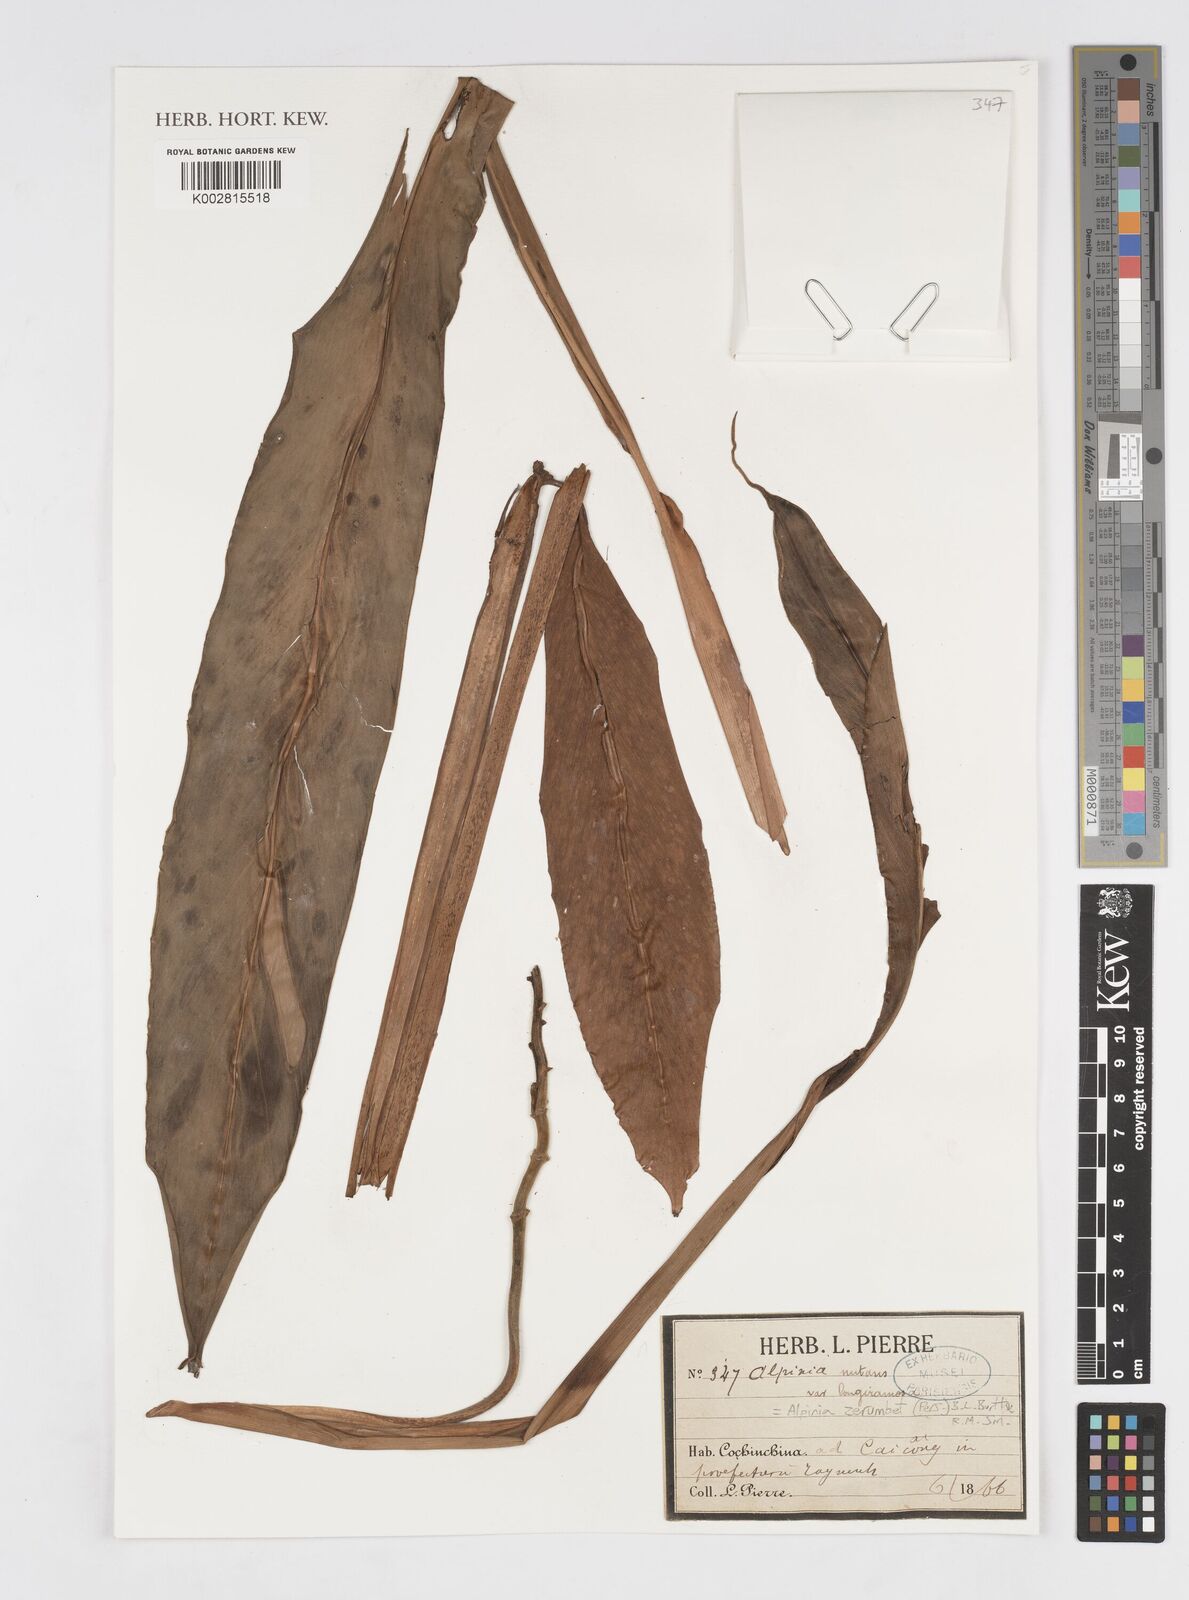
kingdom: Plantae
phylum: Tracheophyta
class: Liliopsida
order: Zingiberales
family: Zingiberaceae
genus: Alpinia
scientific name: Alpinia zerumbet
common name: Shellplant
